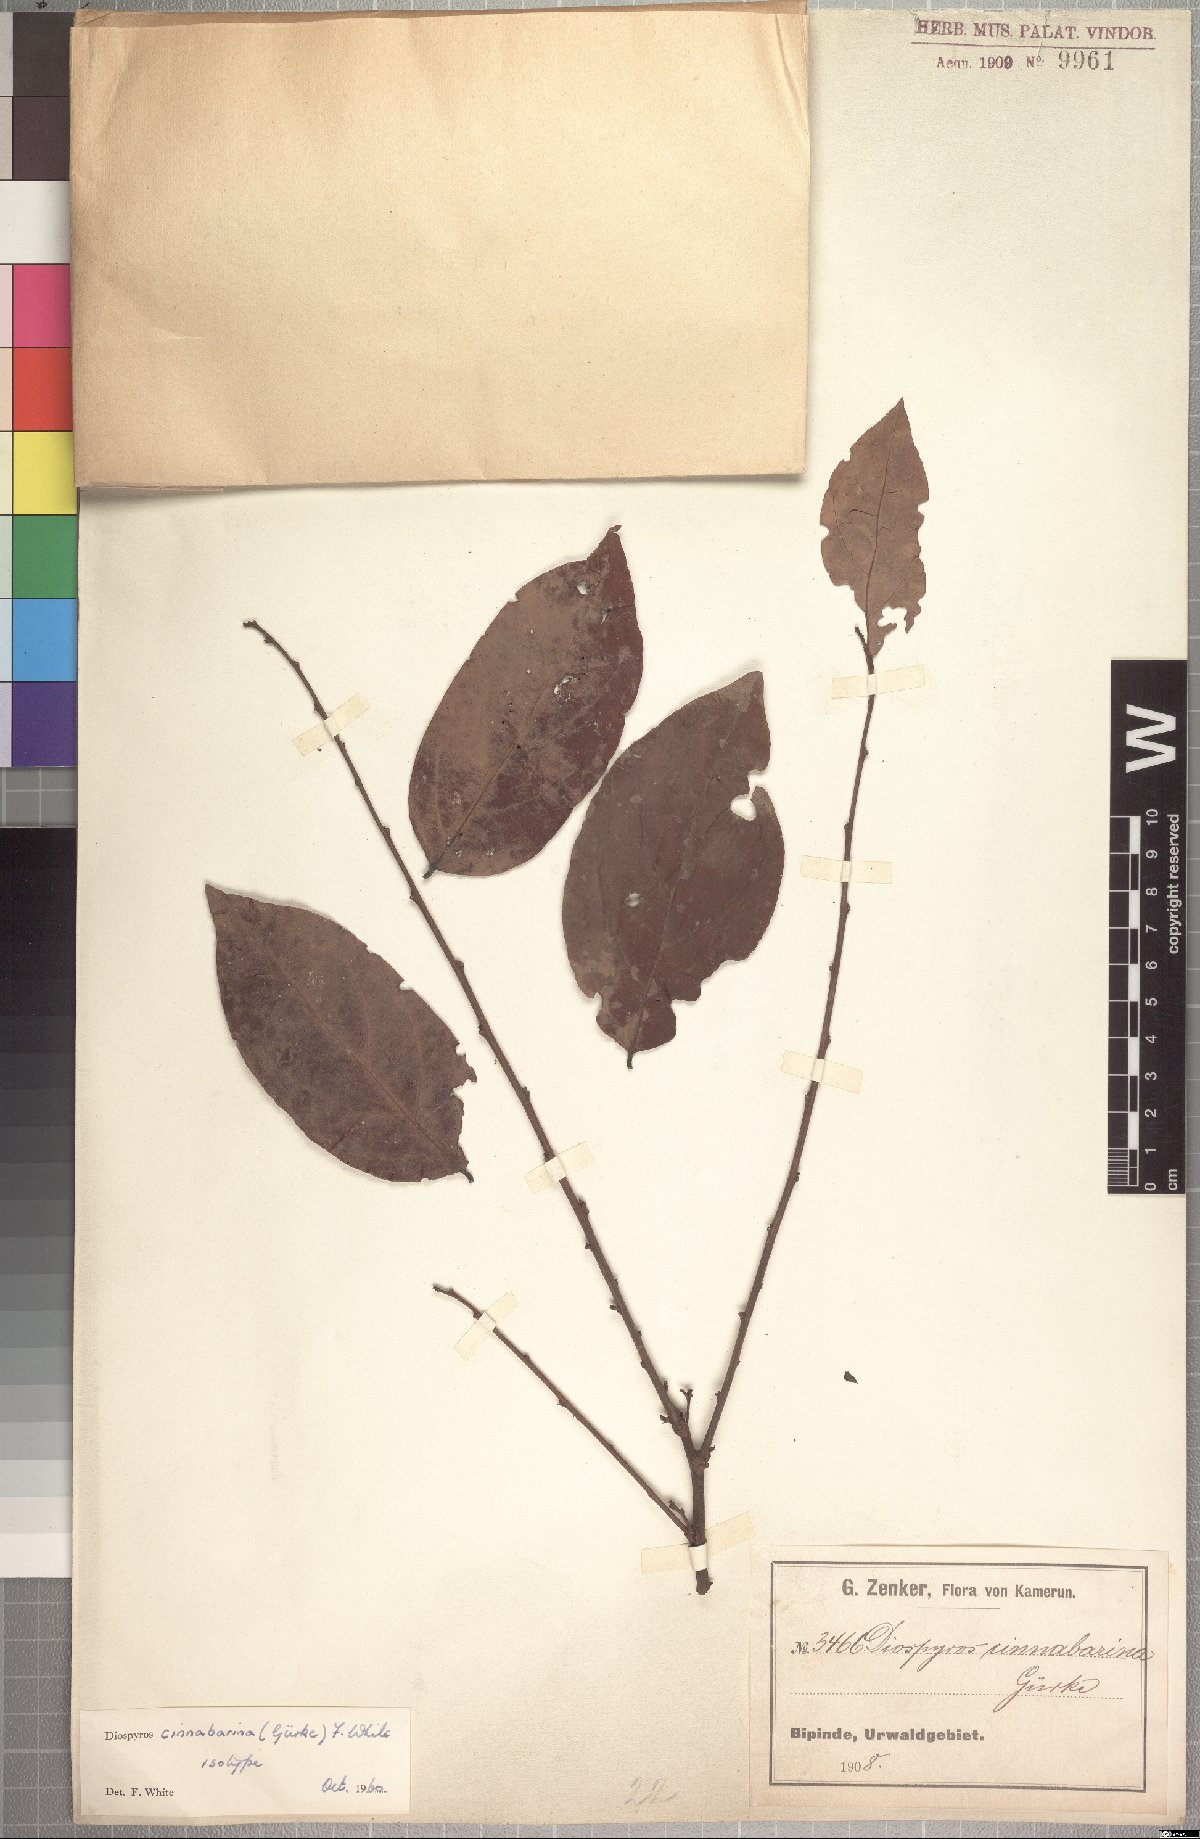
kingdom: Plantae
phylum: Tracheophyta
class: Magnoliopsida
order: Ericales
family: Ebenaceae
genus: Diospyros
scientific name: Diospyros cinnabarina
